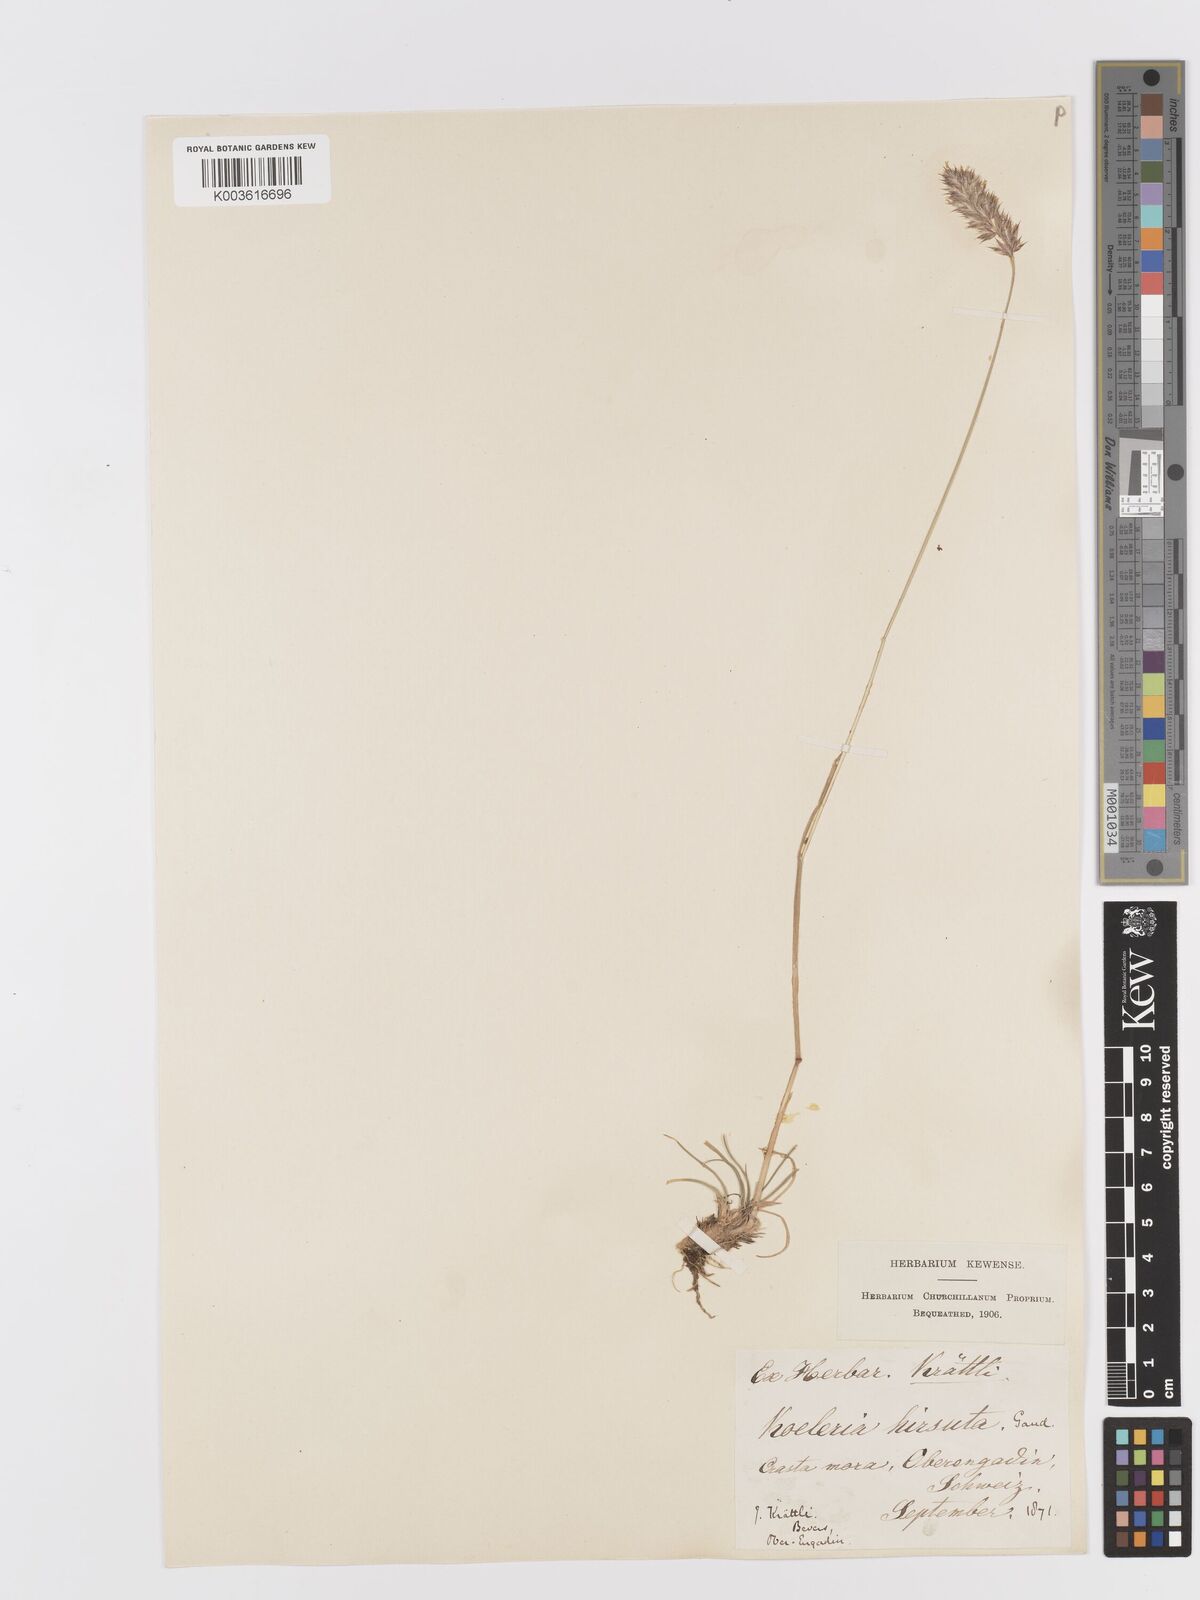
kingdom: Plantae
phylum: Tracheophyta
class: Liliopsida
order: Poales
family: Poaceae
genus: Koeleria
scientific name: Koeleria hirsuta
